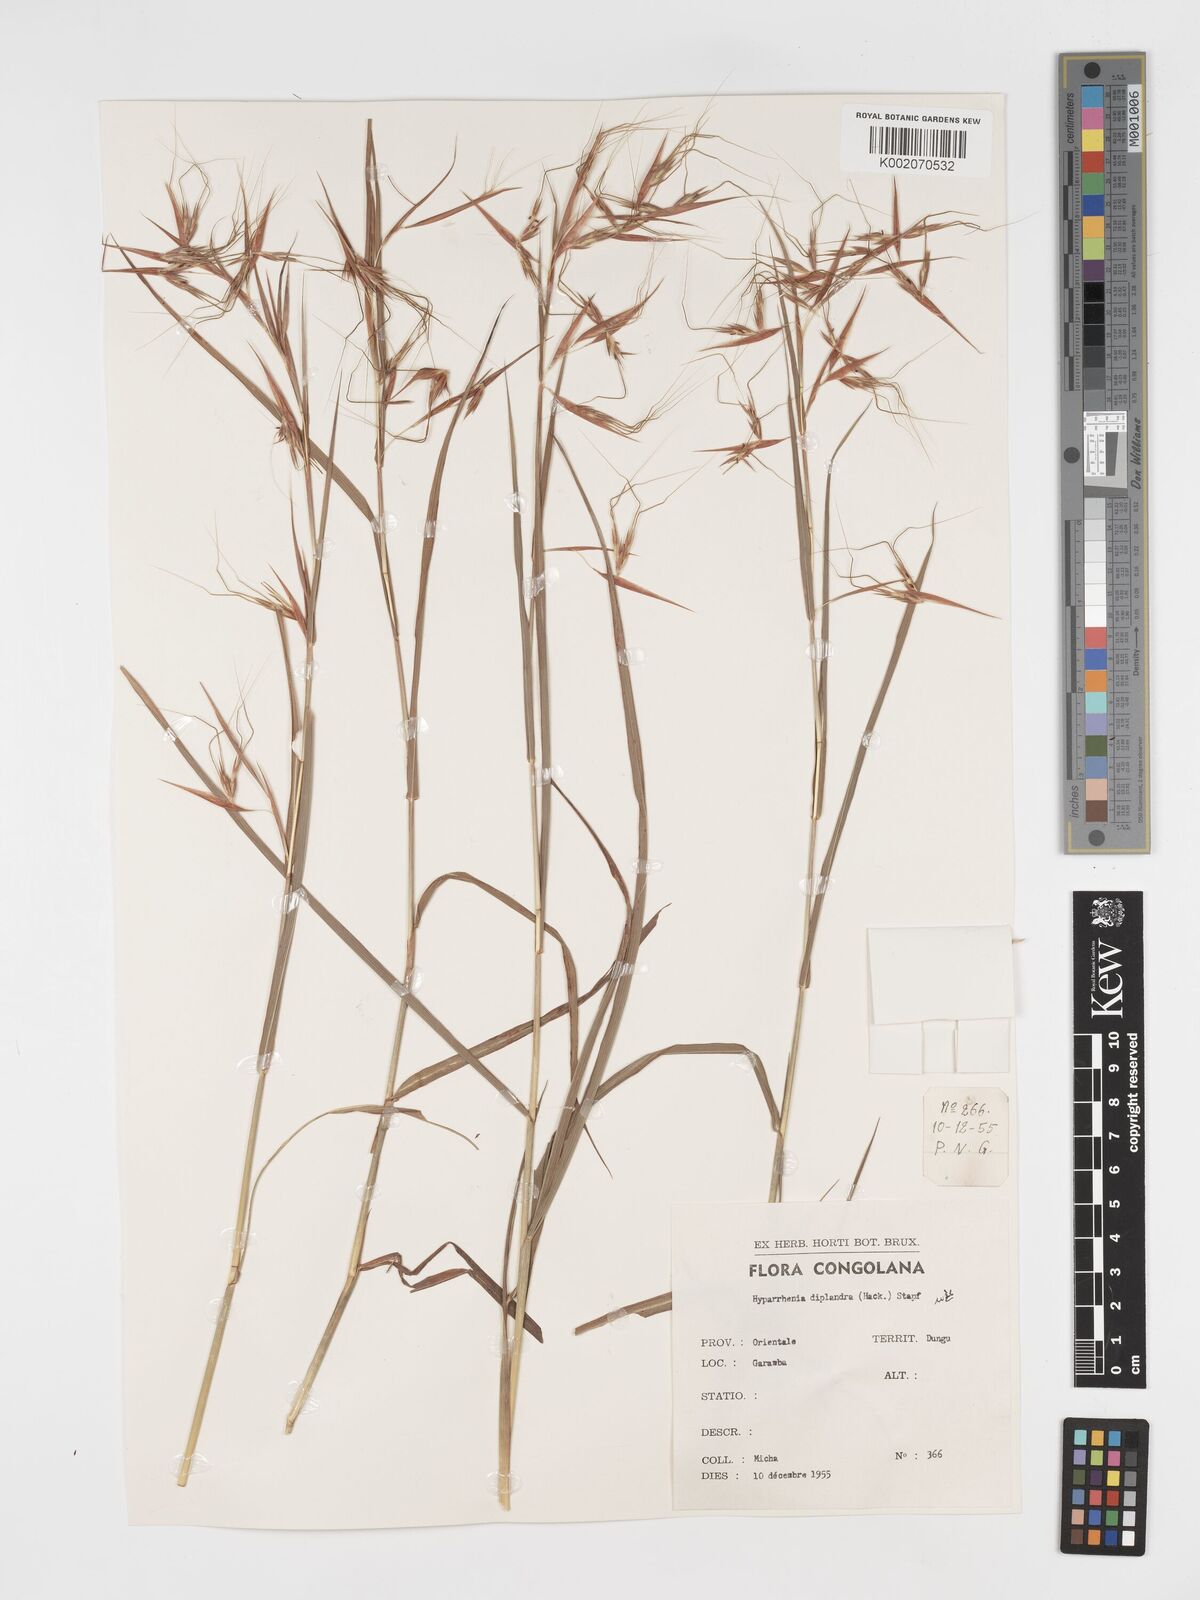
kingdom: Plantae
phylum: Tracheophyta
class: Liliopsida
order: Poales
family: Poaceae
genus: Hyparrhenia
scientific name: Hyparrhenia diplandra
